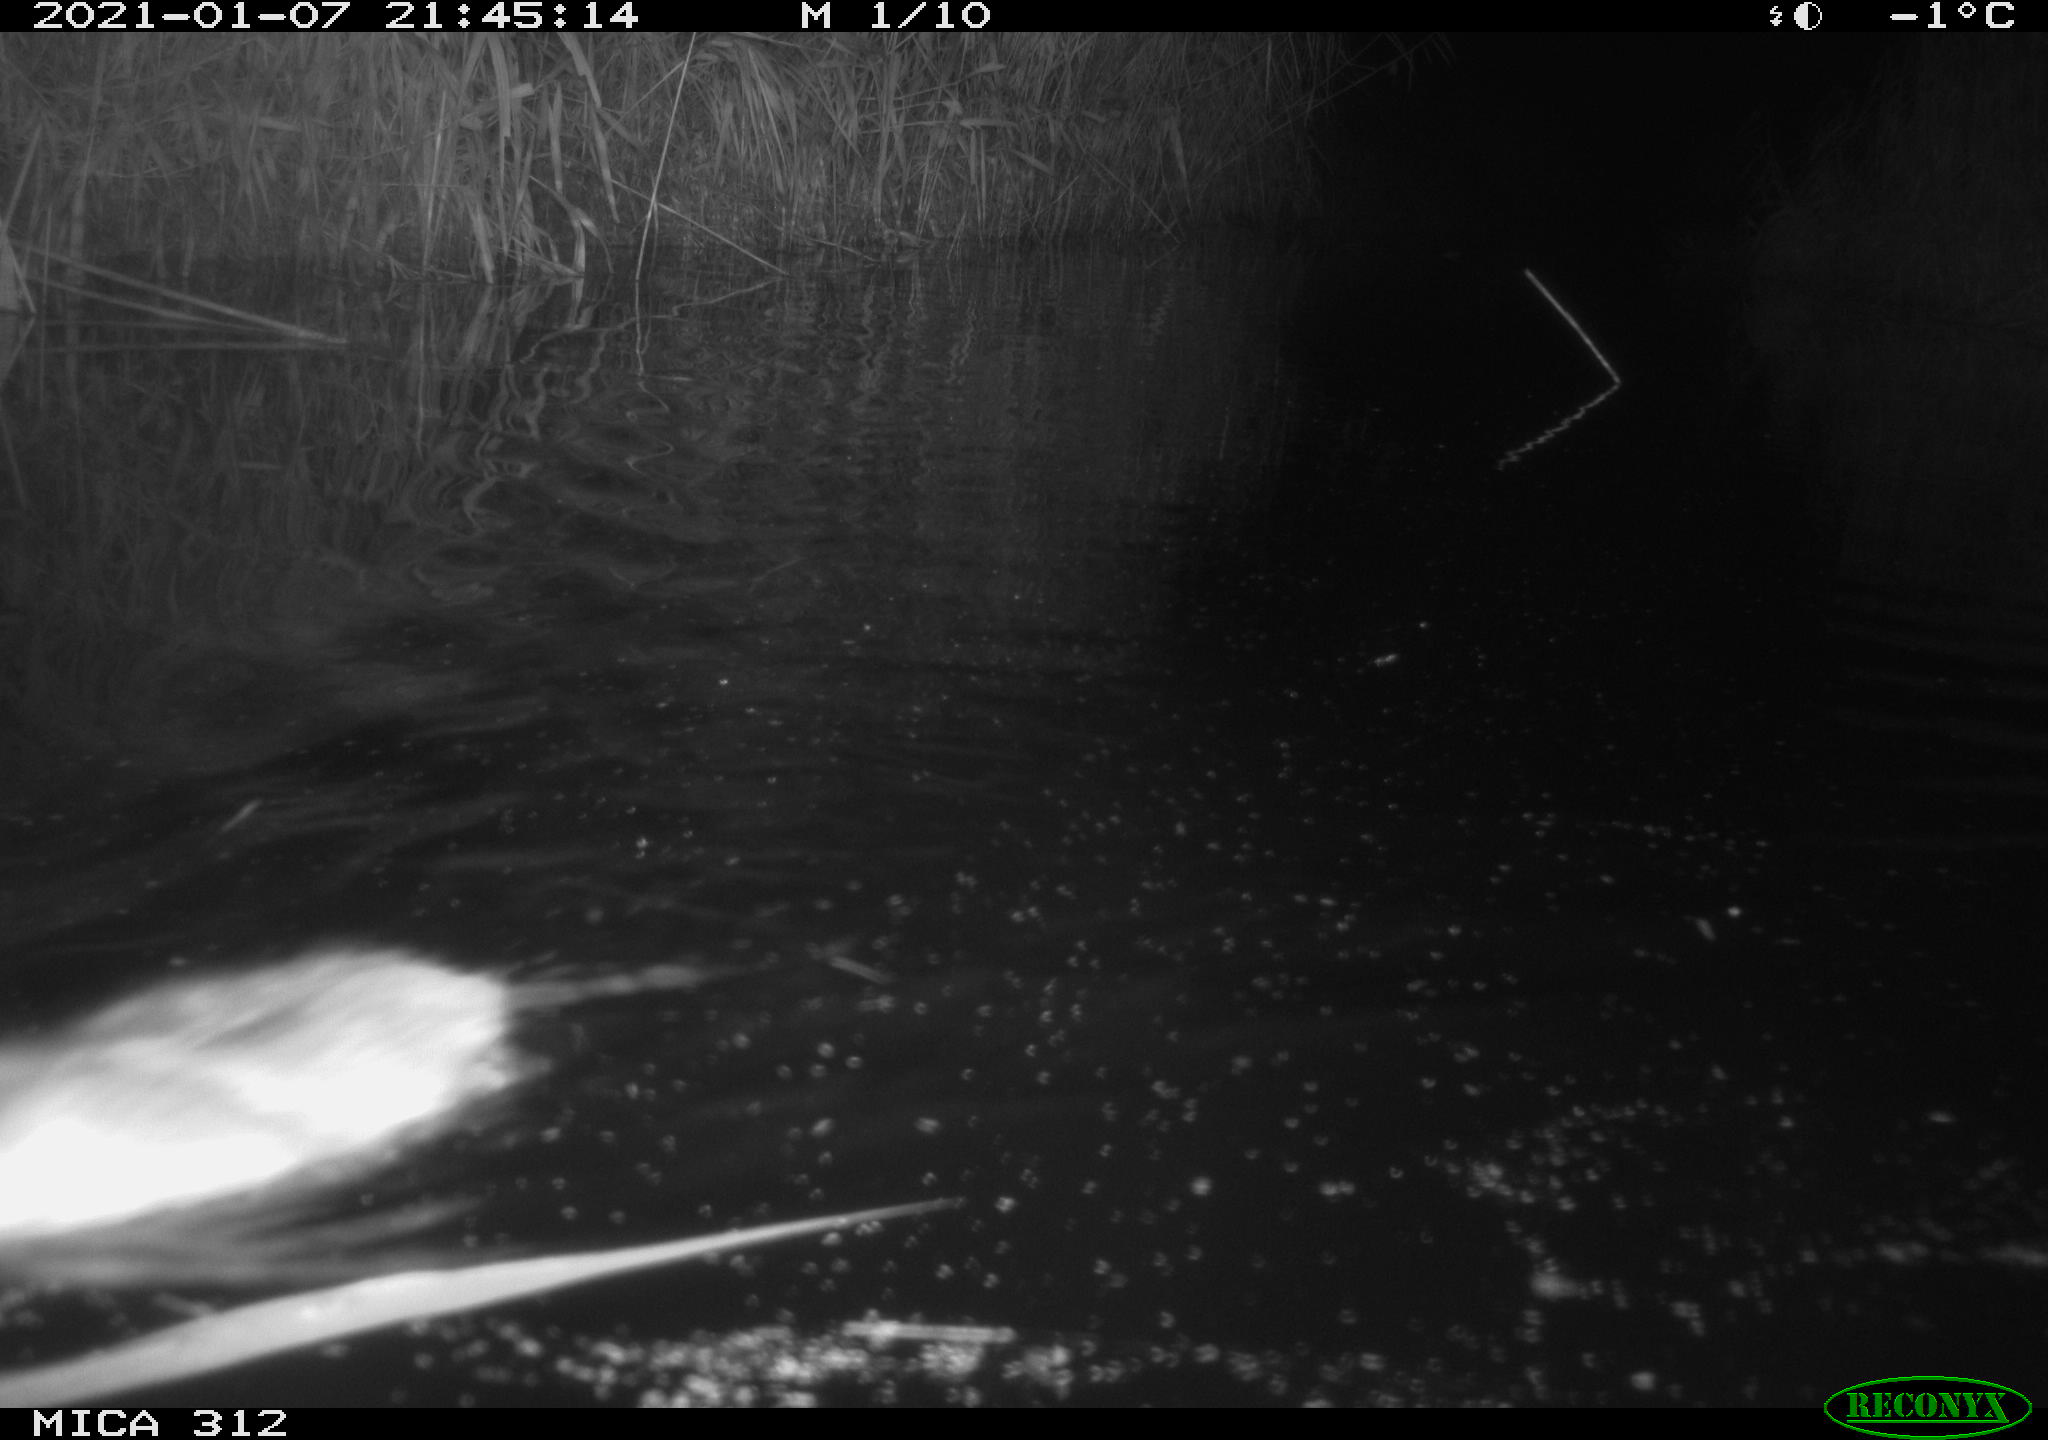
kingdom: Animalia
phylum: Chordata
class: Mammalia
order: Rodentia
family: Muridae
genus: Rattus
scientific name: Rattus norvegicus
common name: Brown rat
